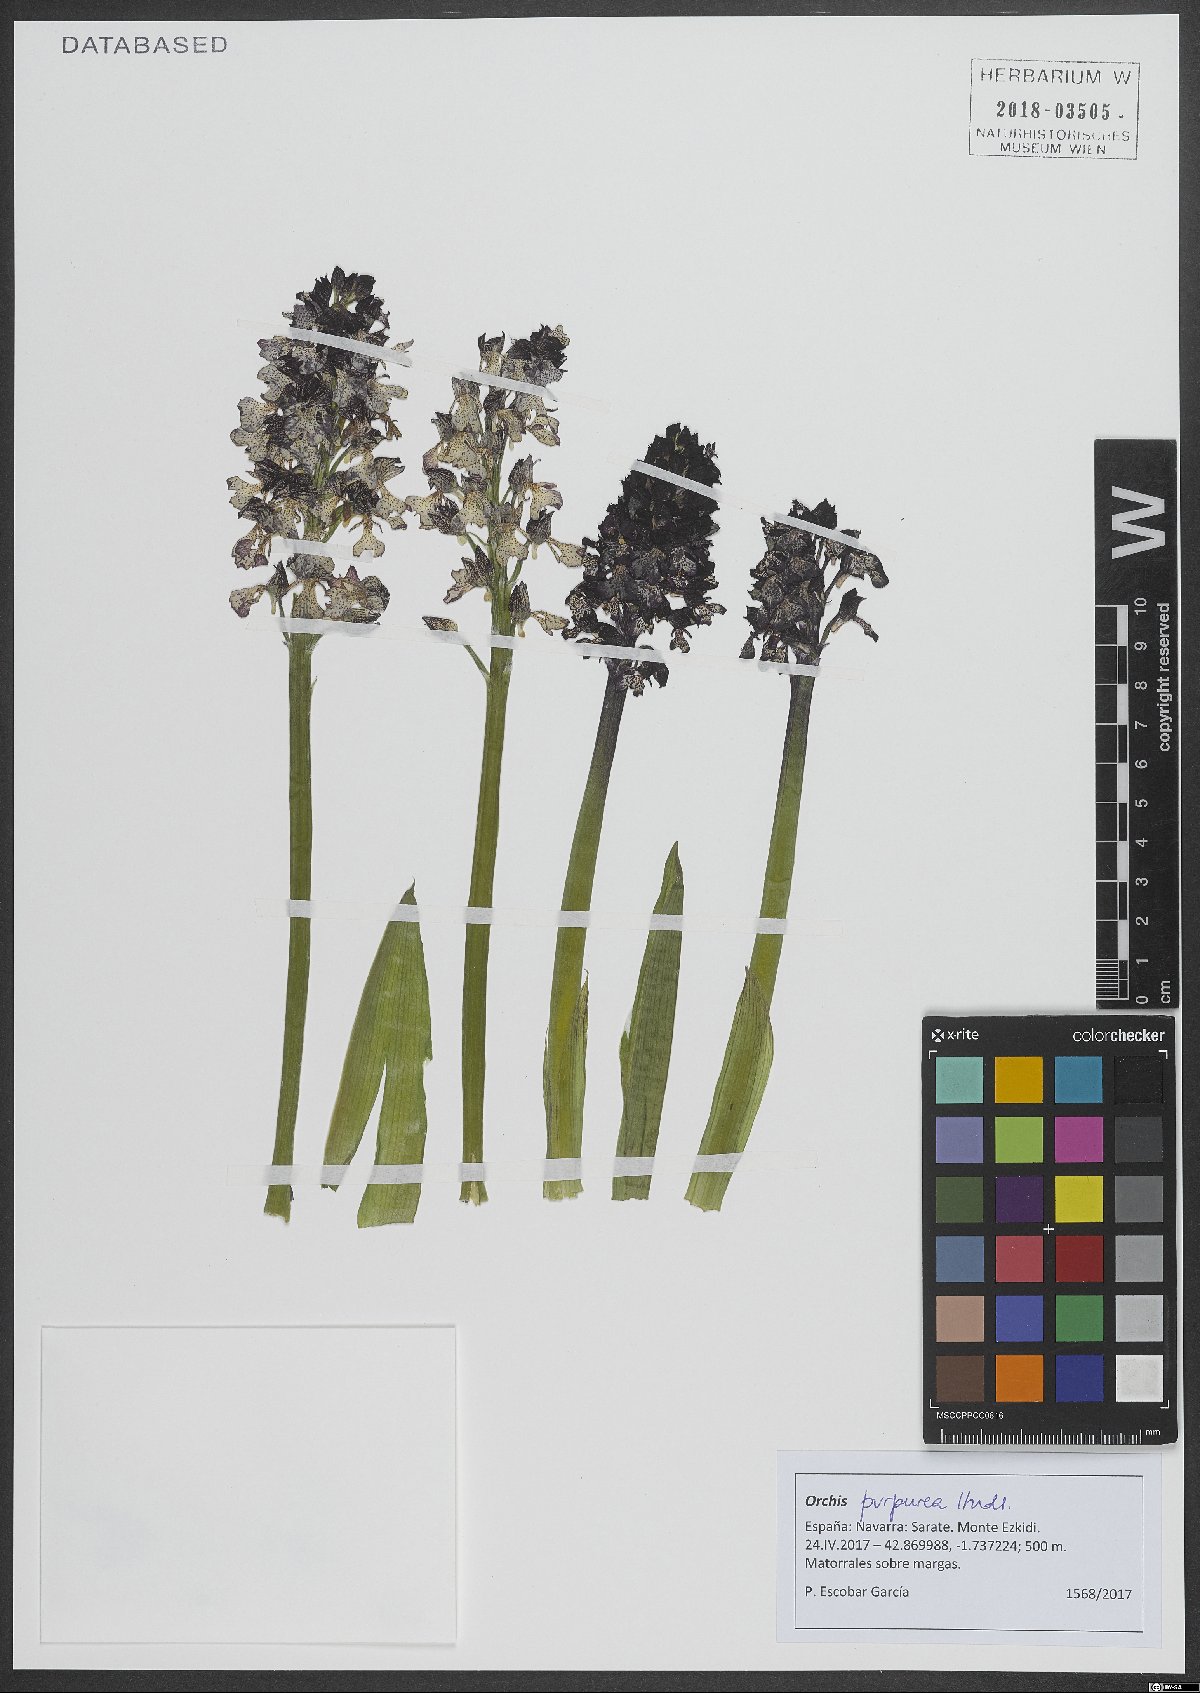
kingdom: Plantae
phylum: Tracheophyta
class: Liliopsida
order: Asparagales
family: Orchidaceae
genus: Orchis
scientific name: Orchis purpurea
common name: Lady orchid
